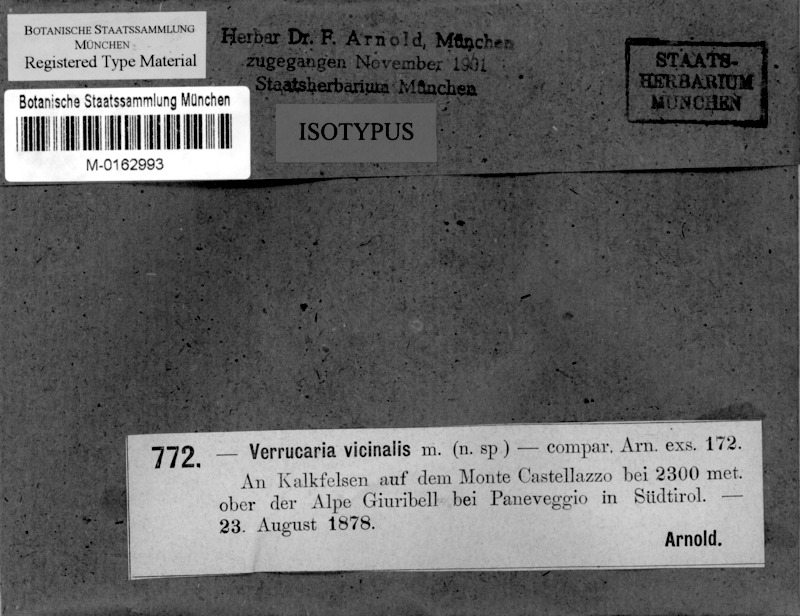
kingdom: Fungi
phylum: Ascomycota
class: Eurotiomycetes
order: Verrucariales
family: Verrucariaceae
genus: Verrucaria
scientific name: Verrucaria vicinalis
